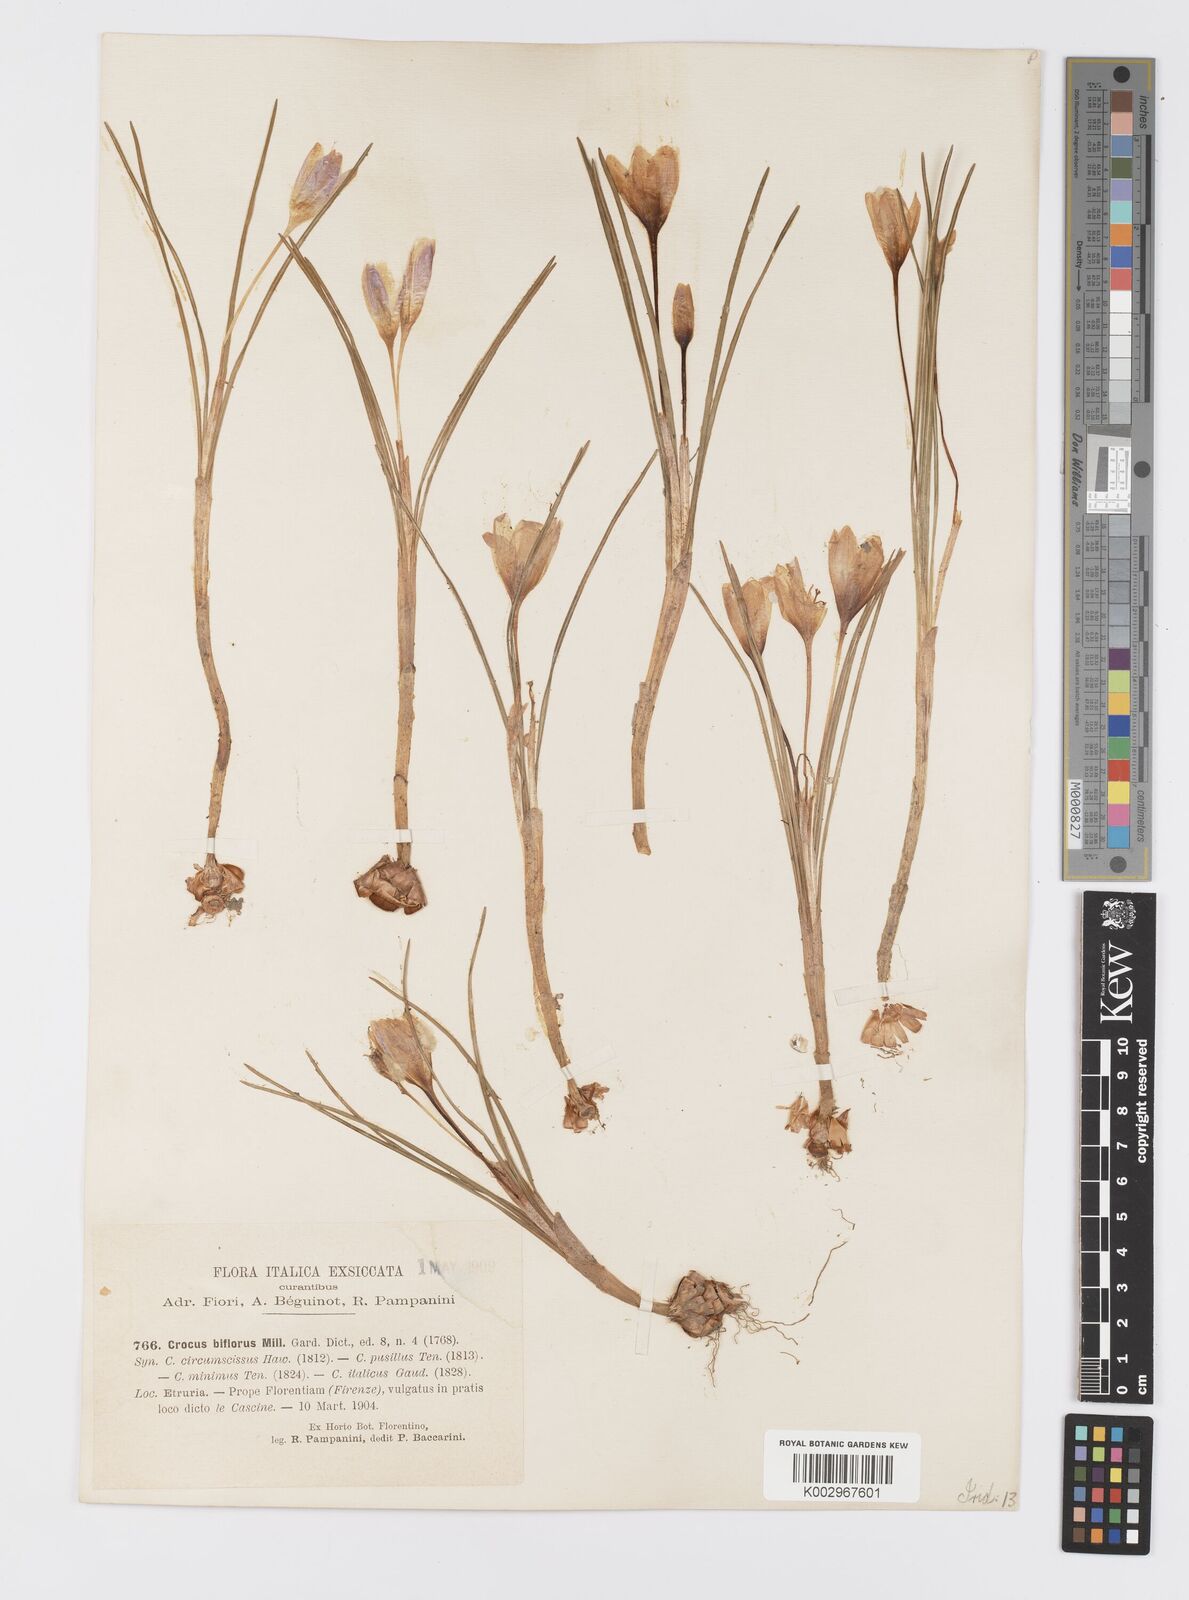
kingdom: Plantae
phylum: Tracheophyta
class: Liliopsida
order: Asparagales
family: Iridaceae
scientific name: Iridaceae
